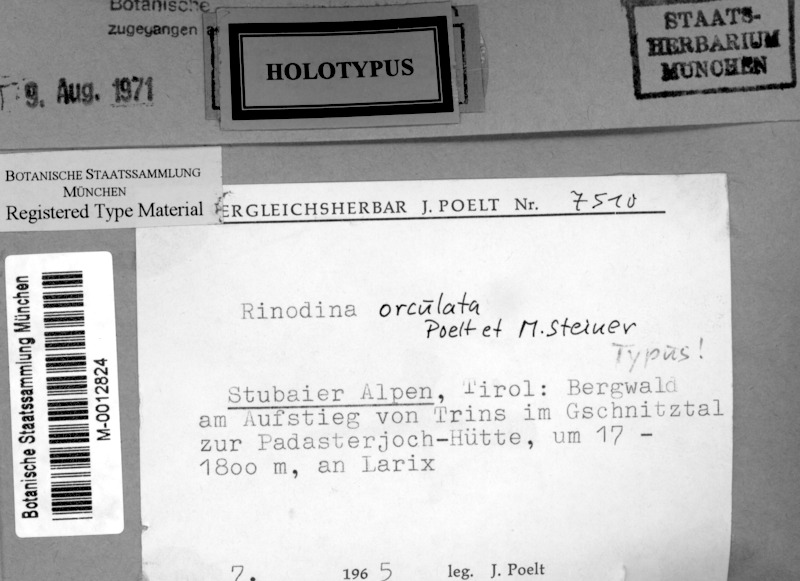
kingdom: Fungi
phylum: Ascomycota
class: Lecanoromycetes
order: Caliciales
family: Physciaceae
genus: Rinodina
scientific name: Rinodina orculata
